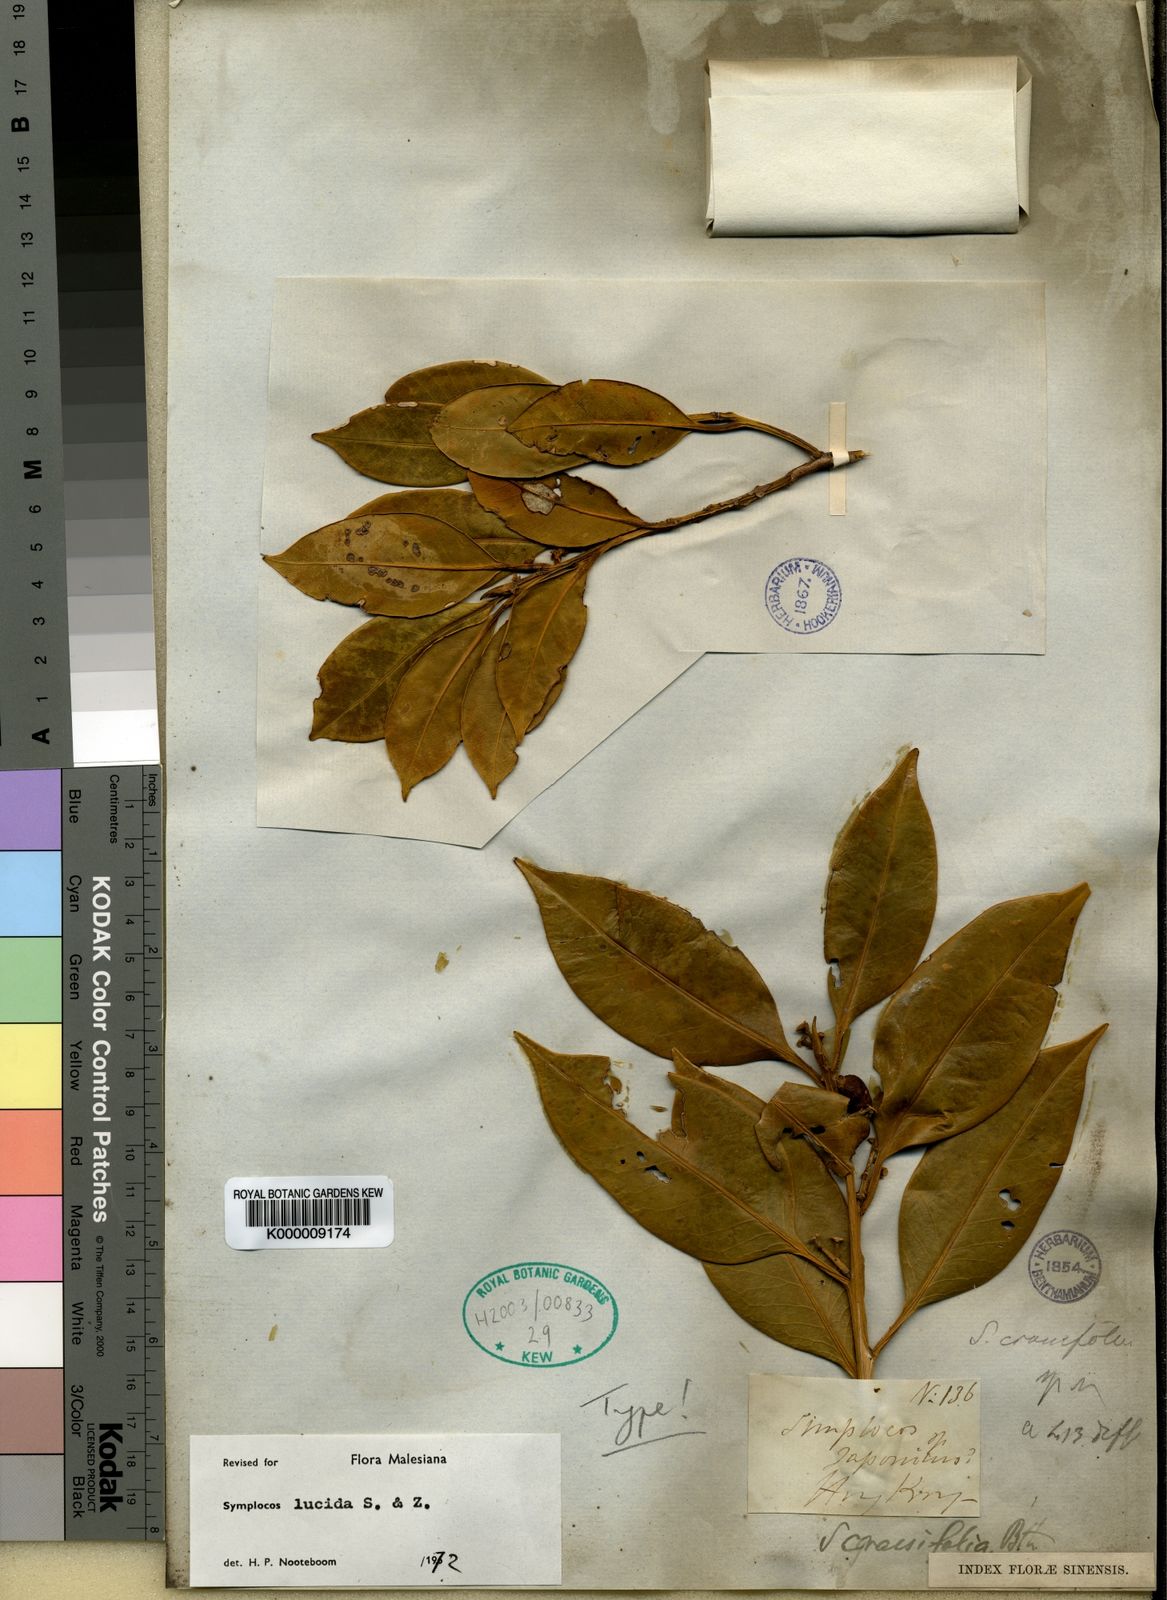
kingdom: Plantae
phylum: Tracheophyta
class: Magnoliopsida
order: Ericales
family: Symplocaceae
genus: Symplocos
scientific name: Symplocos
